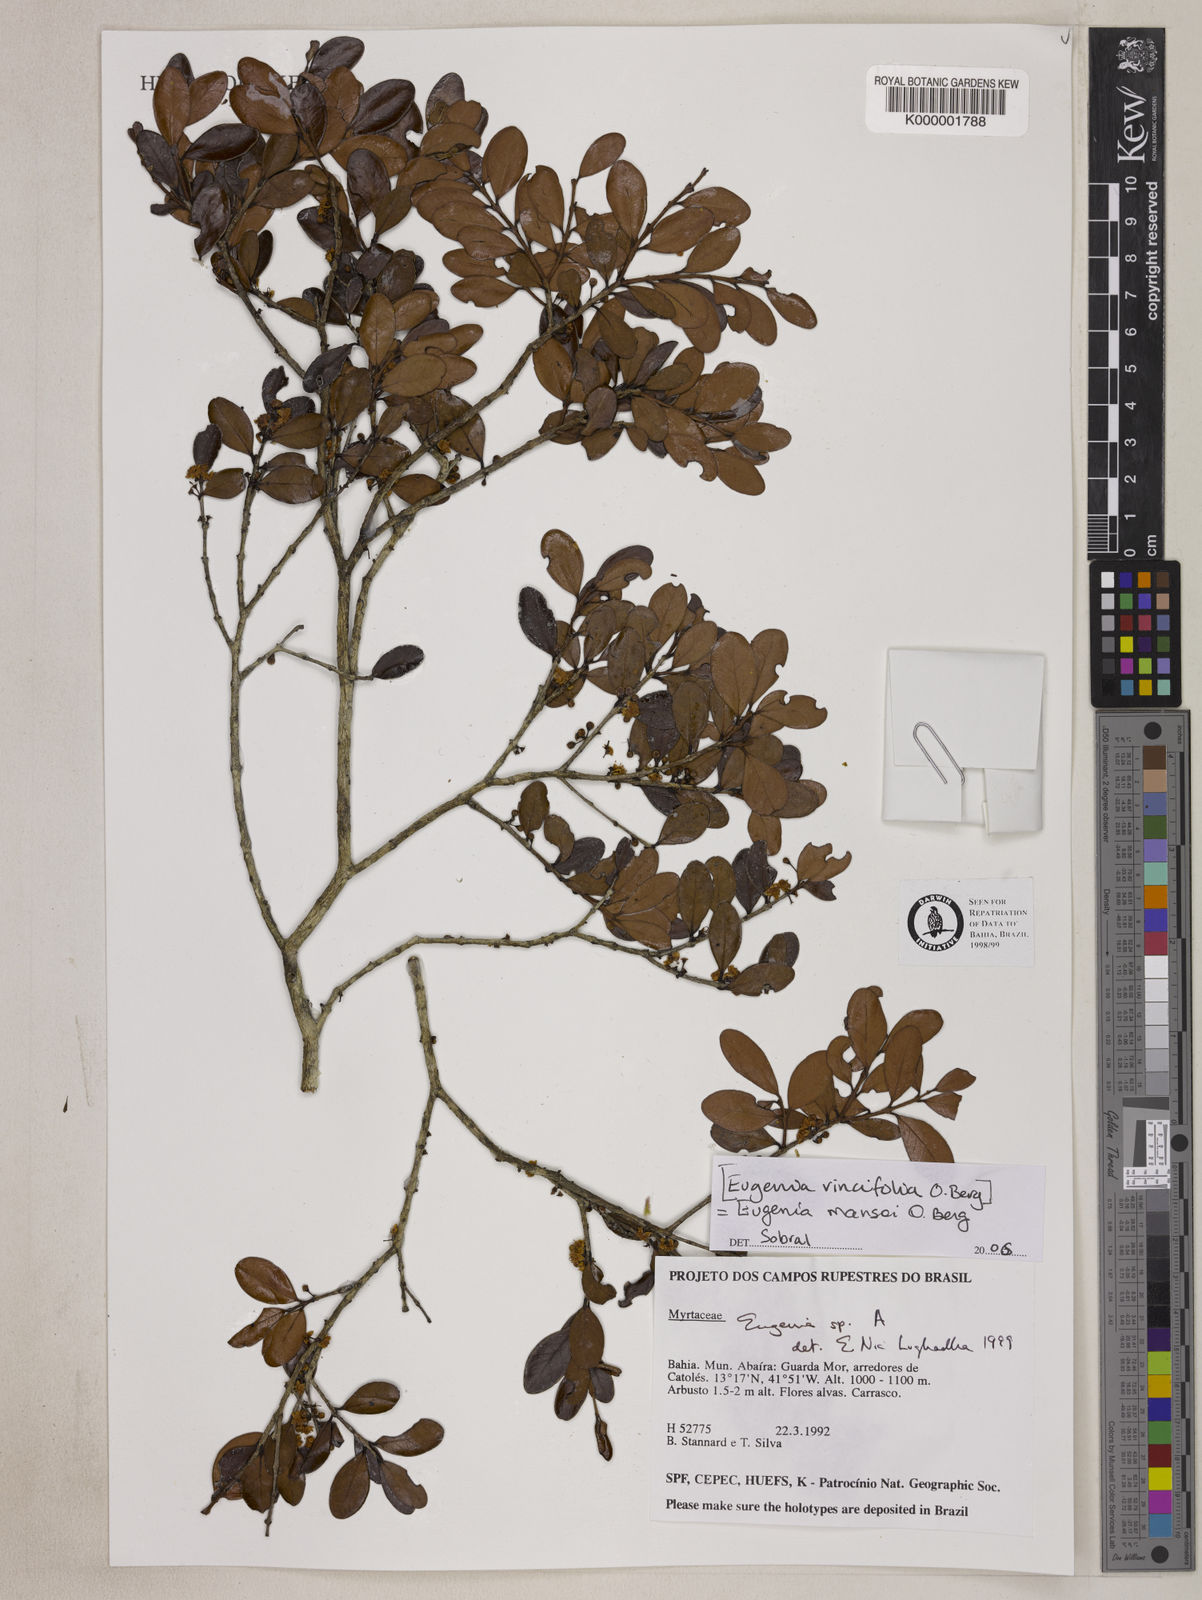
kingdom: Plantae
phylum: Tracheophyta
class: Magnoliopsida
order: Myrtales
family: Myrtaceae
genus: Eugenia
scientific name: Eugenia
